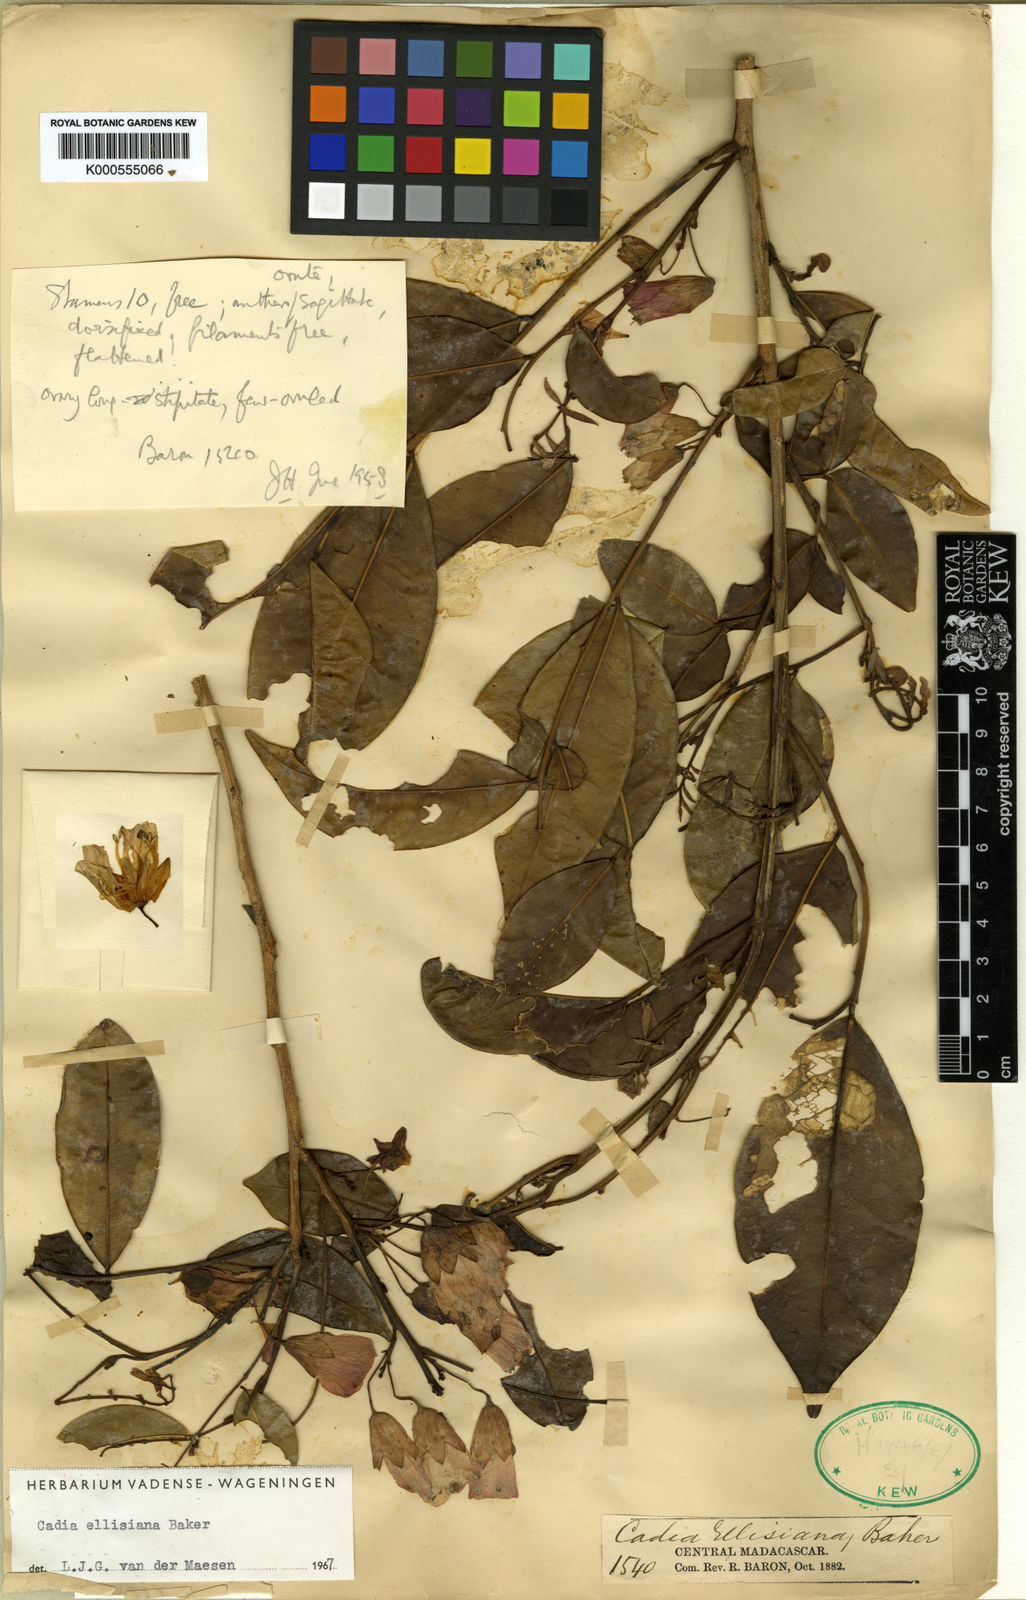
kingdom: Plantae
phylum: Tracheophyta
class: Magnoliopsida
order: Fabales
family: Fabaceae
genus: Cadia
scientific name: Cadia ellisiana
